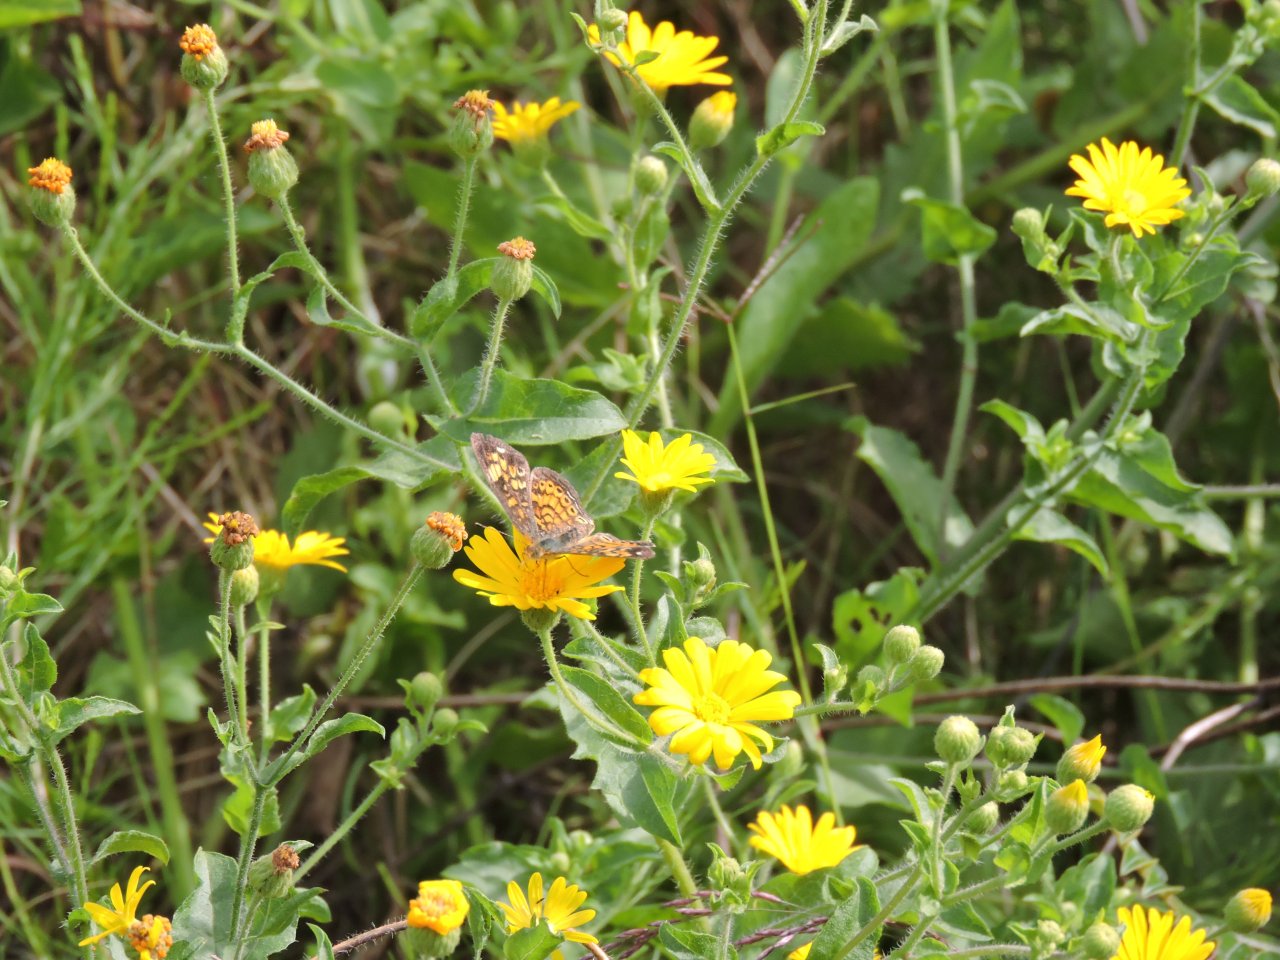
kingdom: Animalia
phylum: Arthropoda
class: Insecta
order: Lepidoptera
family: Nymphalidae
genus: Phyciodes
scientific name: Phyciodes tharos
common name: Pearl Crescent
